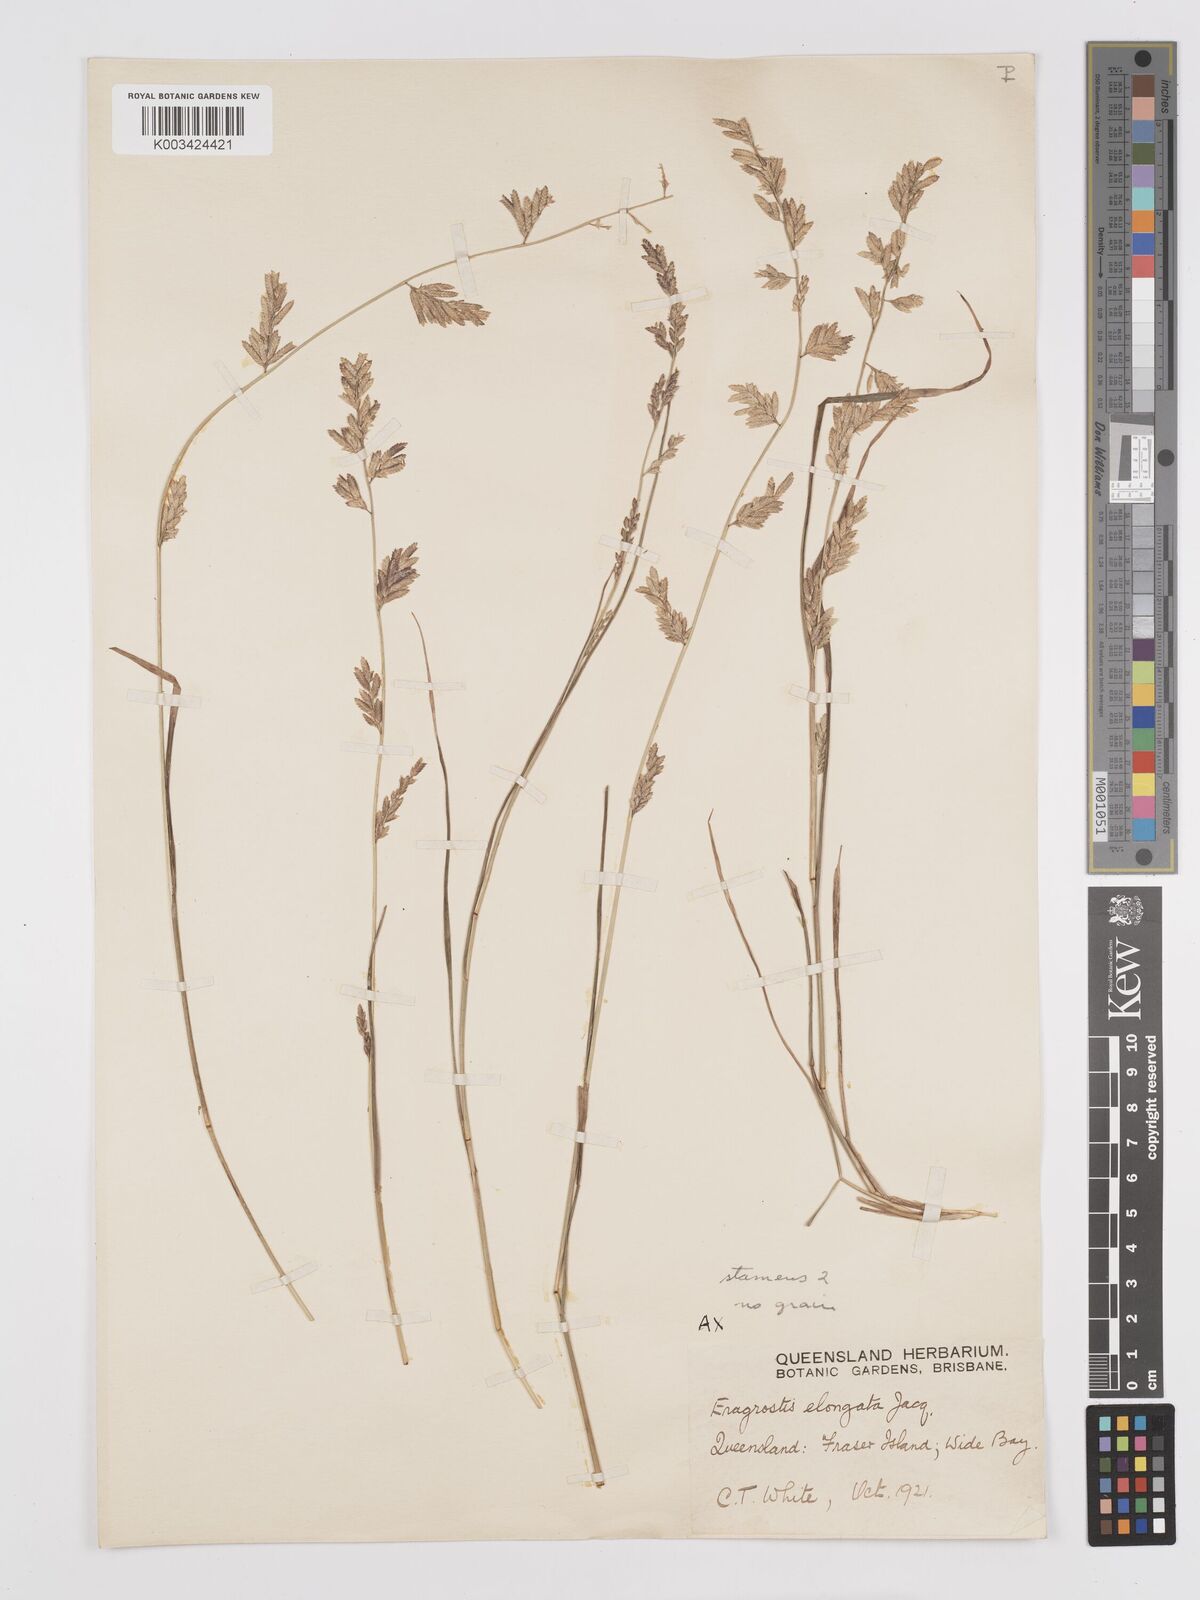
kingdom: Plantae
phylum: Tracheophyta
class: Liliopsida
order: Poales
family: Poaceae
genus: Eragrostis
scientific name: Eragrostis elongata
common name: Long lovegrass
